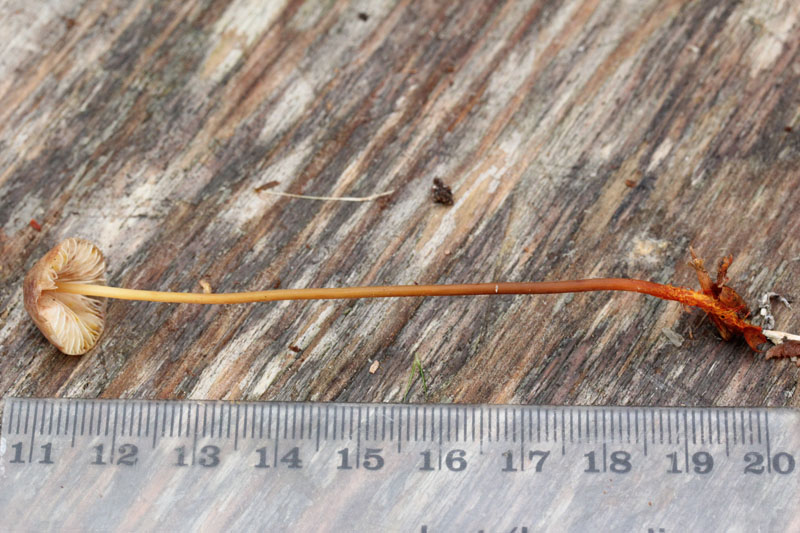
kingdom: Fungi
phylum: Basidiomycota
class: Agaricomycetes
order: Agaricales
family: Mycenaceae
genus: Mycena
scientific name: Mycena crocata
